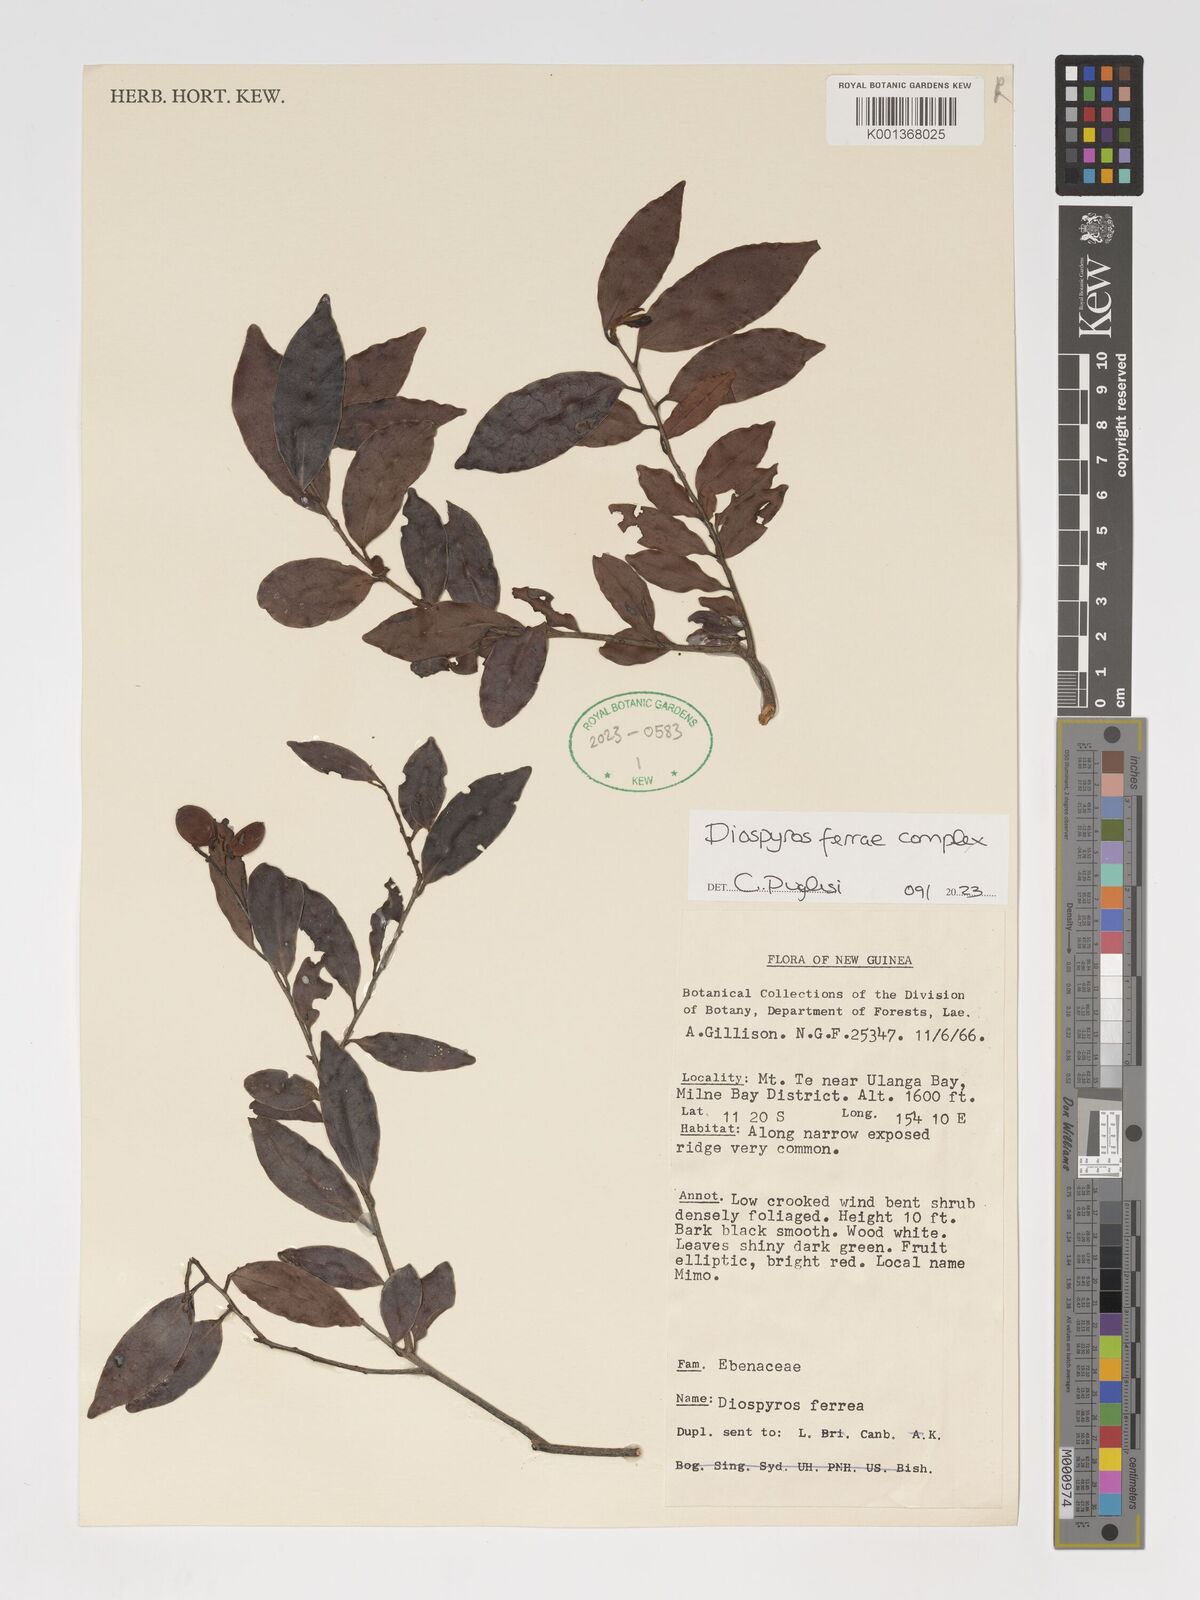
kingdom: Plantae
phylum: Tracheophyta
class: Magnoliopsida
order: Ericales
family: Ebenaceae
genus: Diospyros
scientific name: Diospyros ferrea
